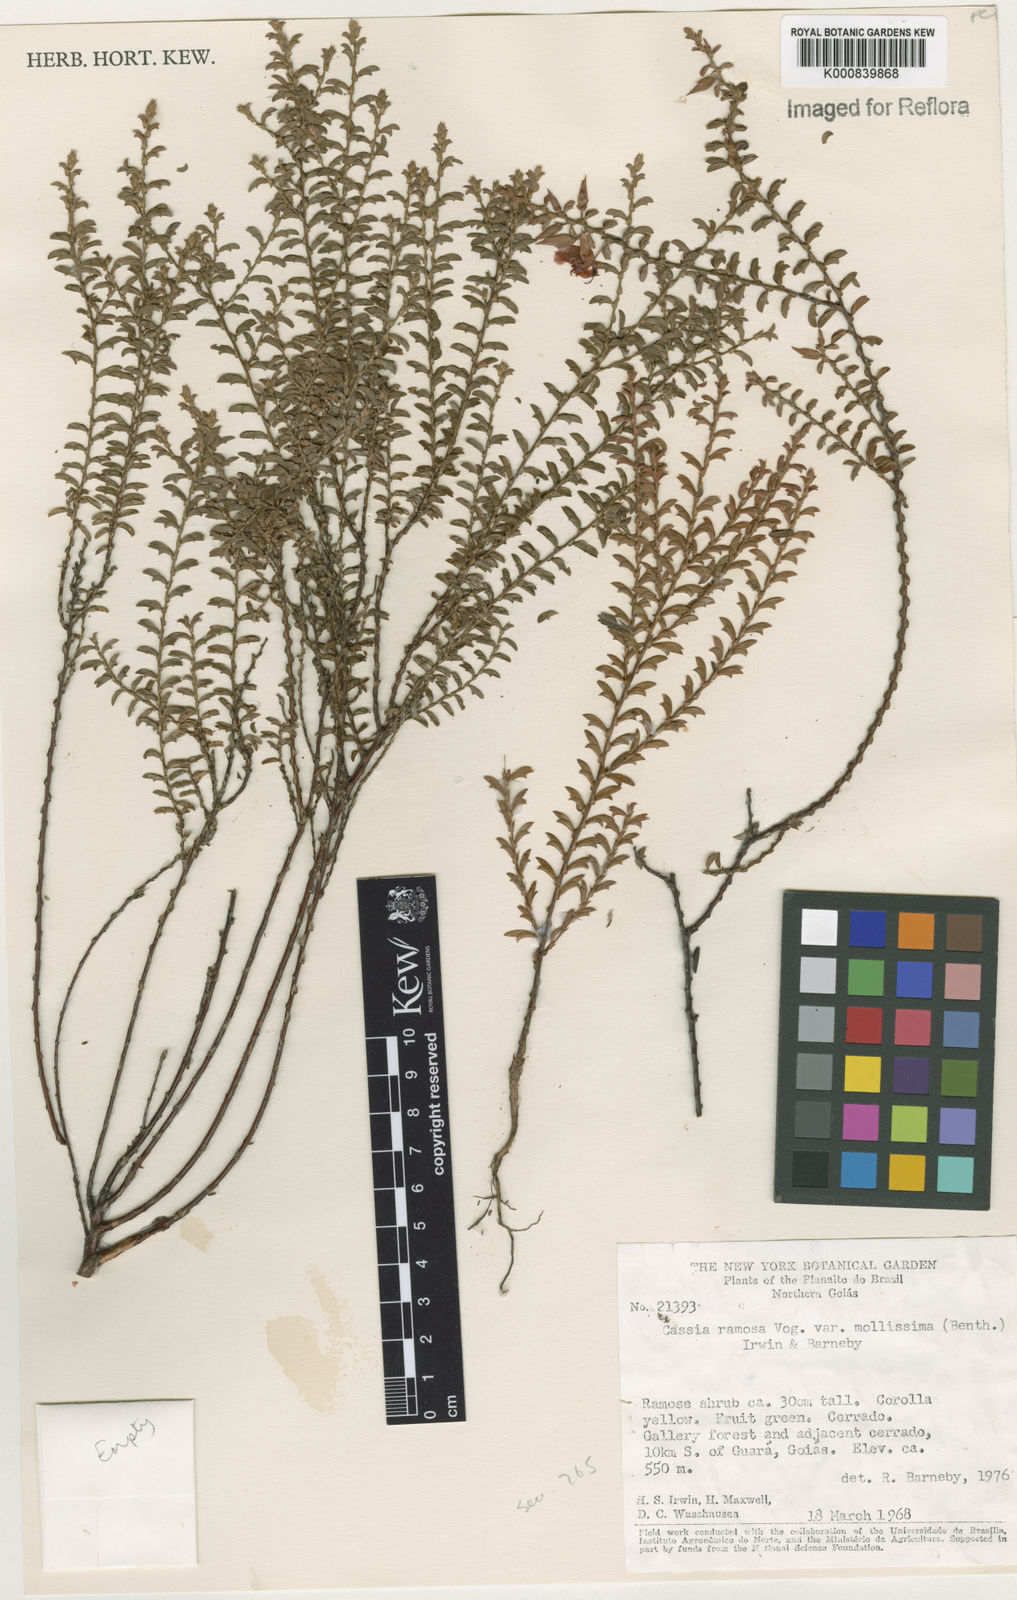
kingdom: Plantae
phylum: Tracheophyta
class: Magnoliopsida
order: Fabales
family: Fabaceae
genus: Chamaecrista
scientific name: Chamaecrista ramosa
